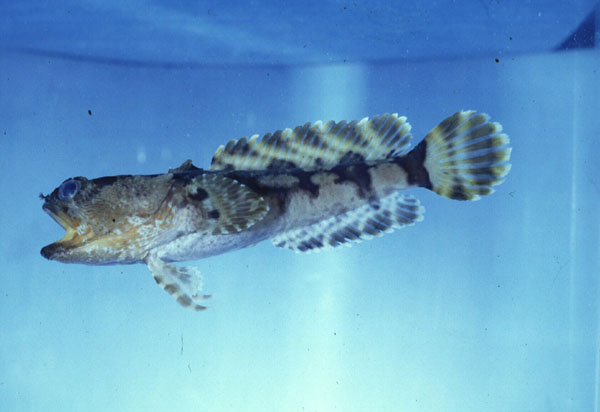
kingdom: Animalia
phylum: Chordata
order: Batrachoidiformes
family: Batrachoididae
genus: Austrobatrachus
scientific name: Austrobatrachus foedus
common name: Puzzled toadfish
